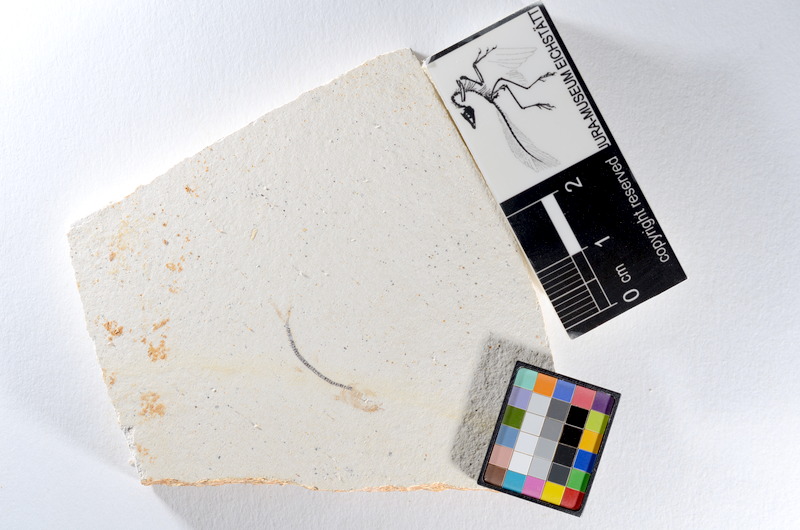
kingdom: Animalia
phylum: Chordata
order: Salmoniformes
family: Orthogonikleithridae
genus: Orthogonikleithrus
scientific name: Orthogonikleithrus hoelli
